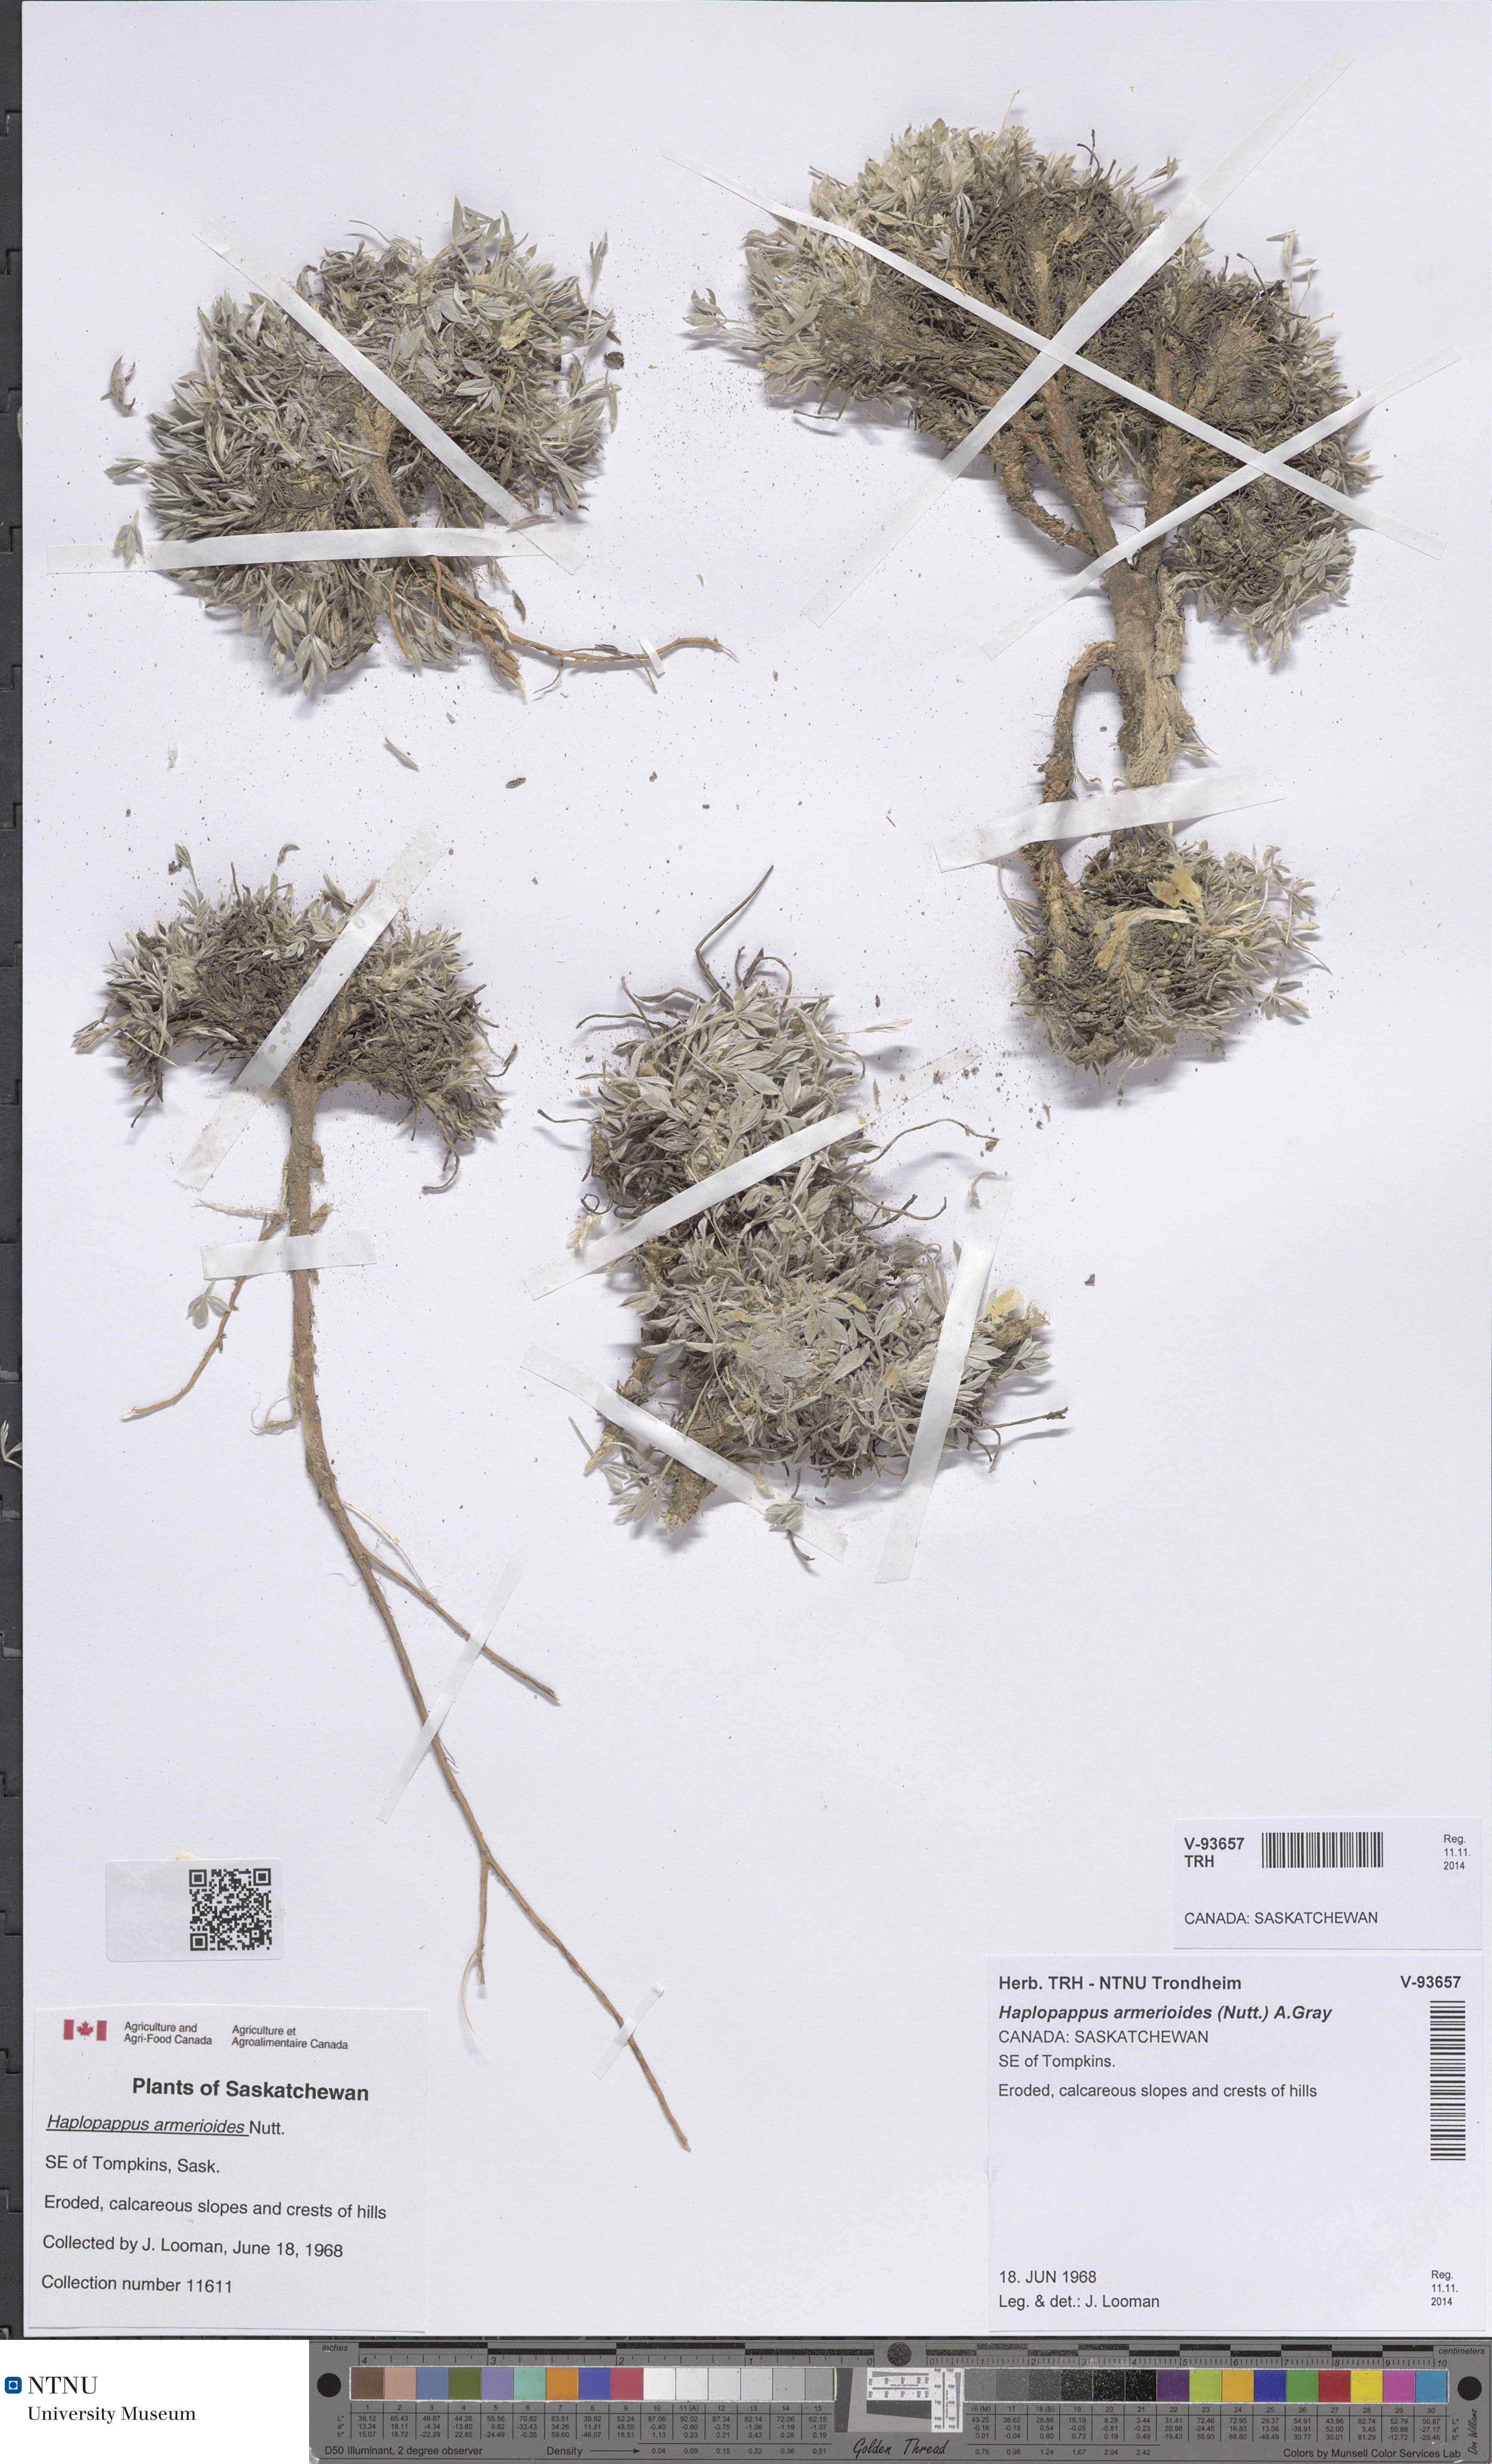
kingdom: Plantae
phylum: Tracheophyta
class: Magnoliopsida
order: Asterales
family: Asteraceae
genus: Stenotus
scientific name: Stenotus armerioides
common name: Thrifty goldenweed
